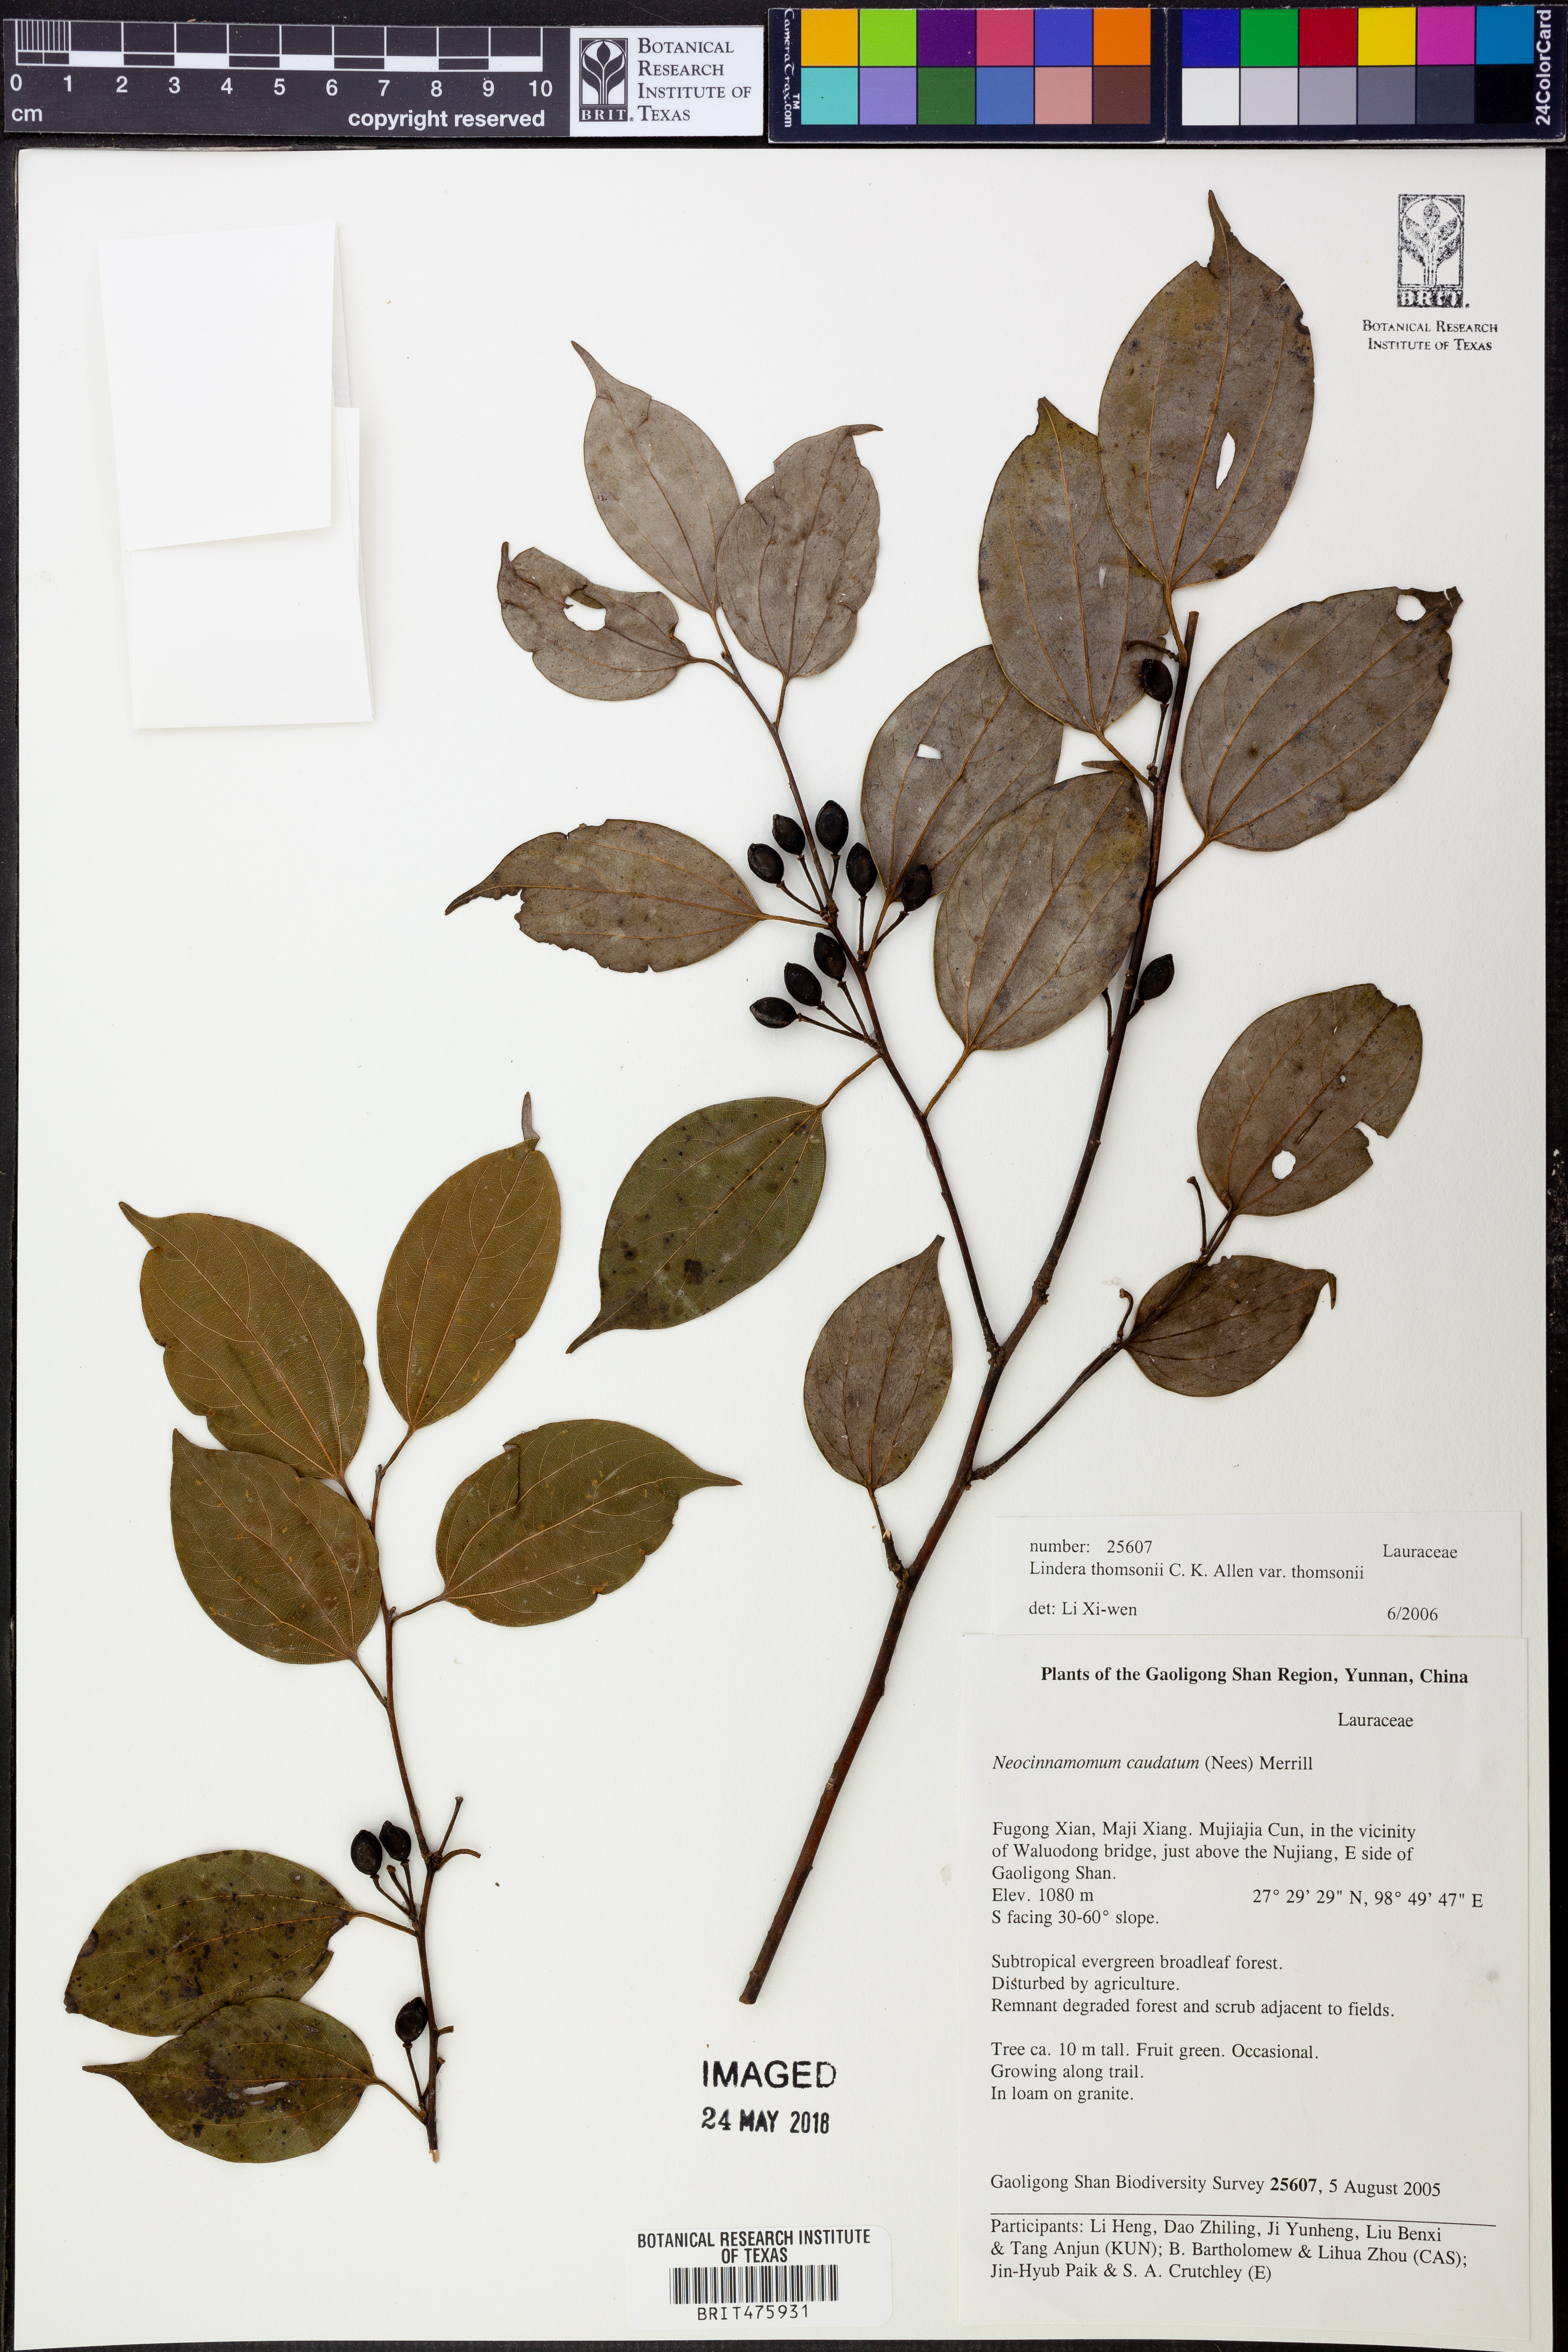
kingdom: Plantae
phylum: Tracheophyta
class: Magnoliopsida
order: Laurales
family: Lauraceae
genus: Lindera
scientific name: Lindera thomsonii
